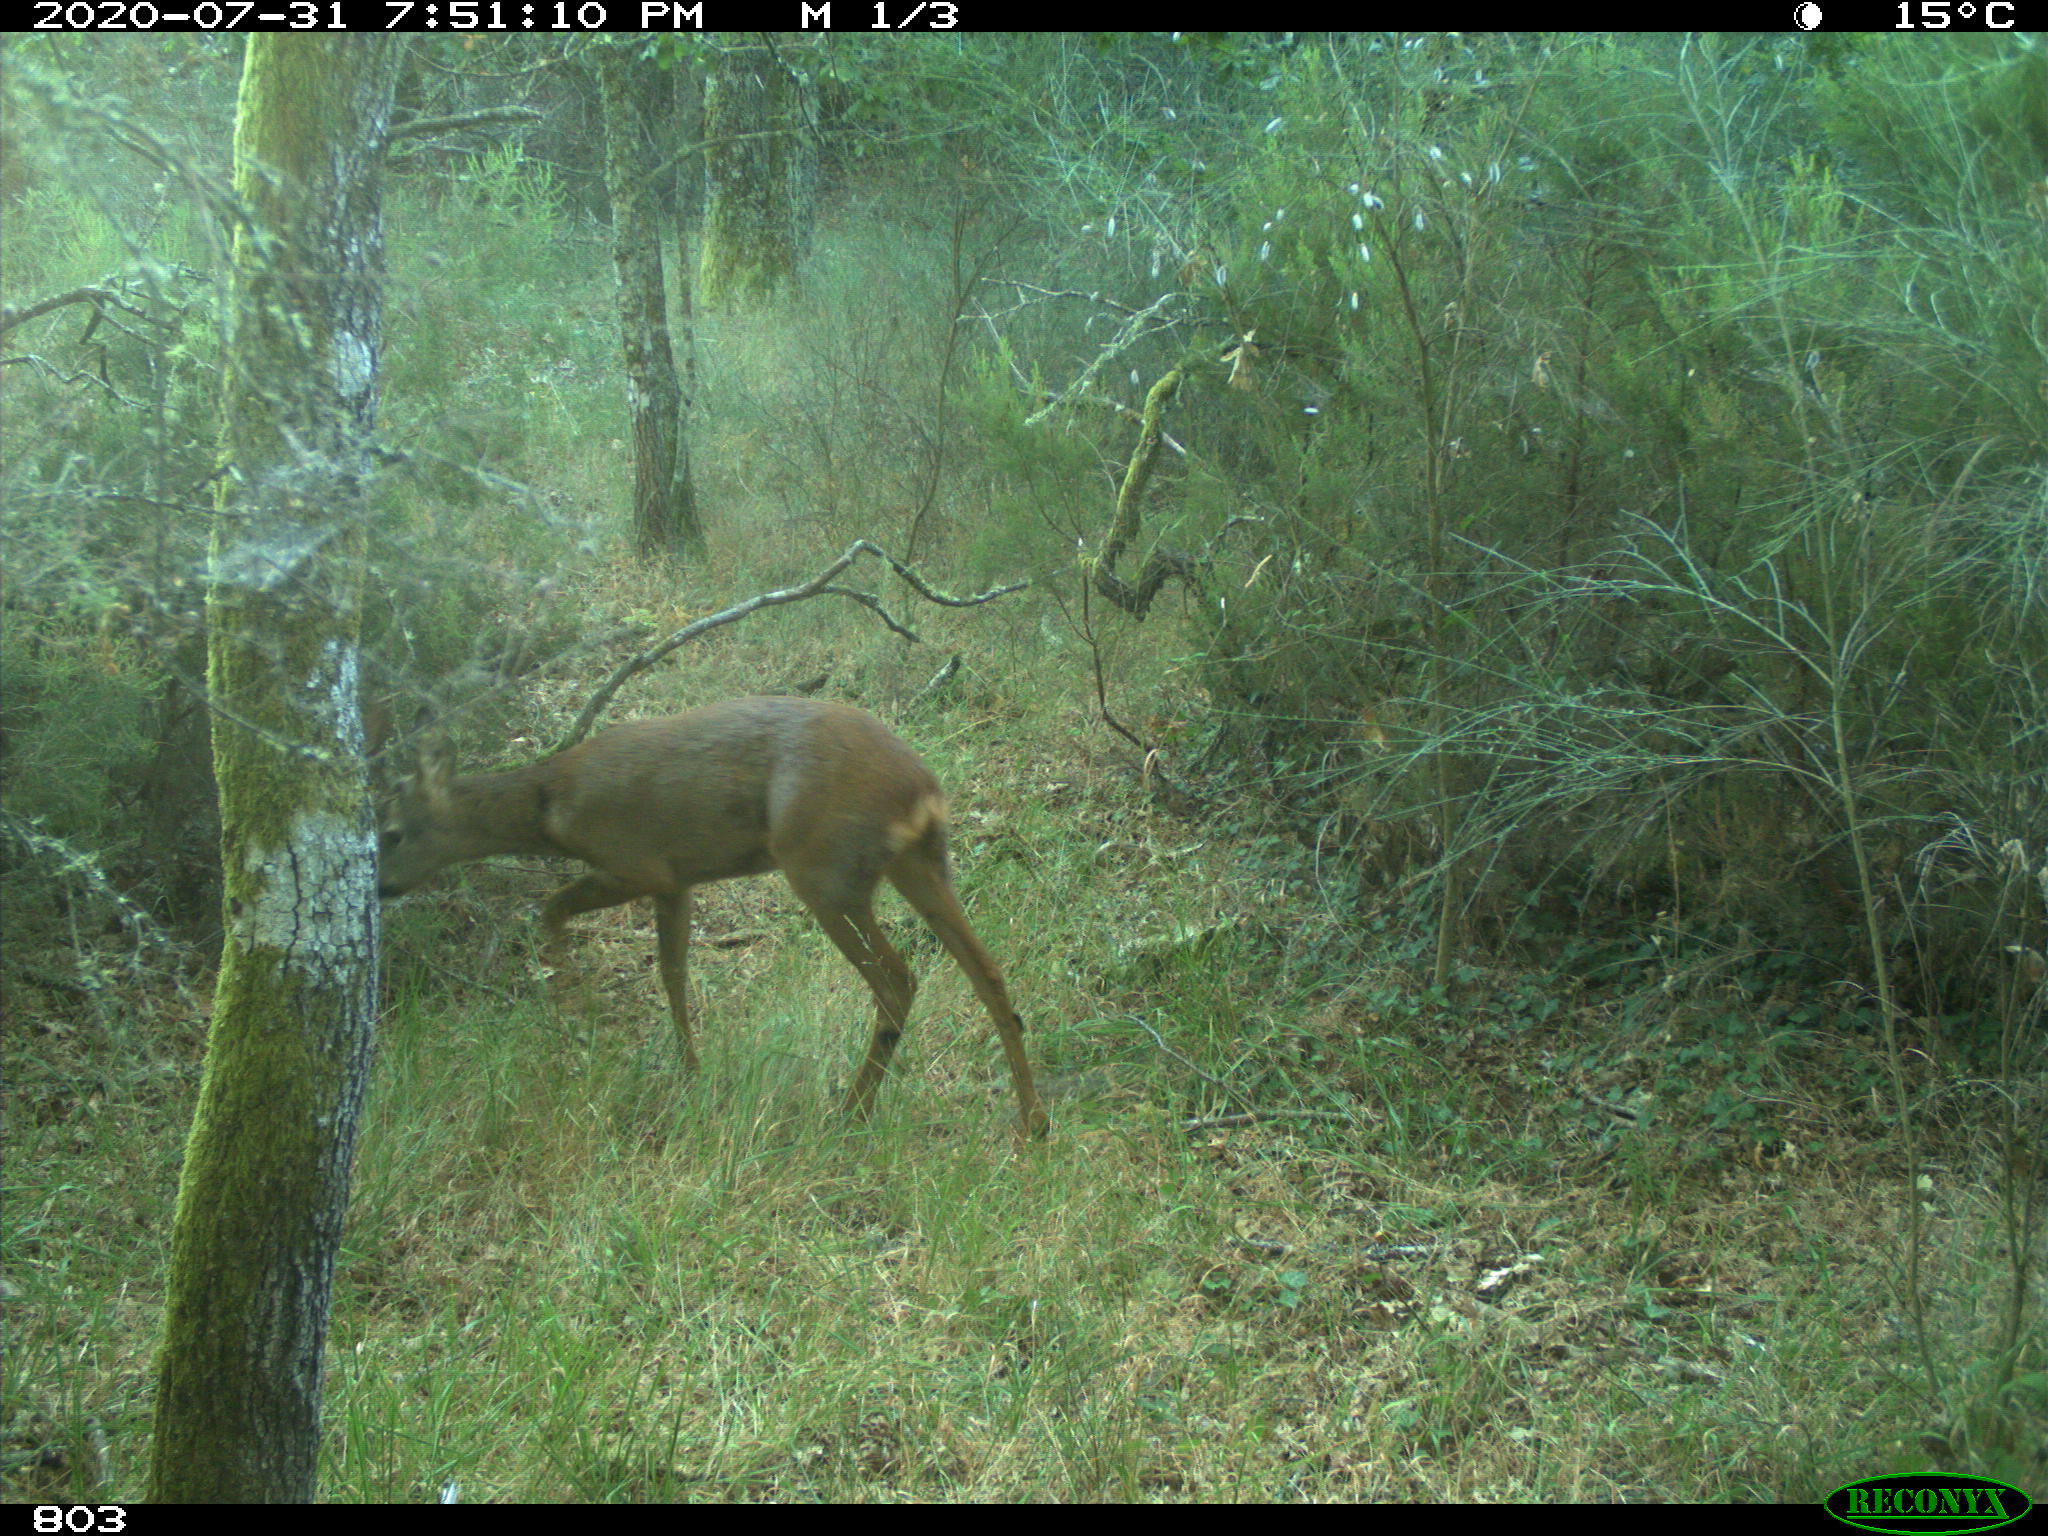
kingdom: Animalia
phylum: Chordata
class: Mammalia
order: Artiodactyla
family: Cervidae
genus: Capreolus
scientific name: Capreolus capreolus
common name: Western roe deer
